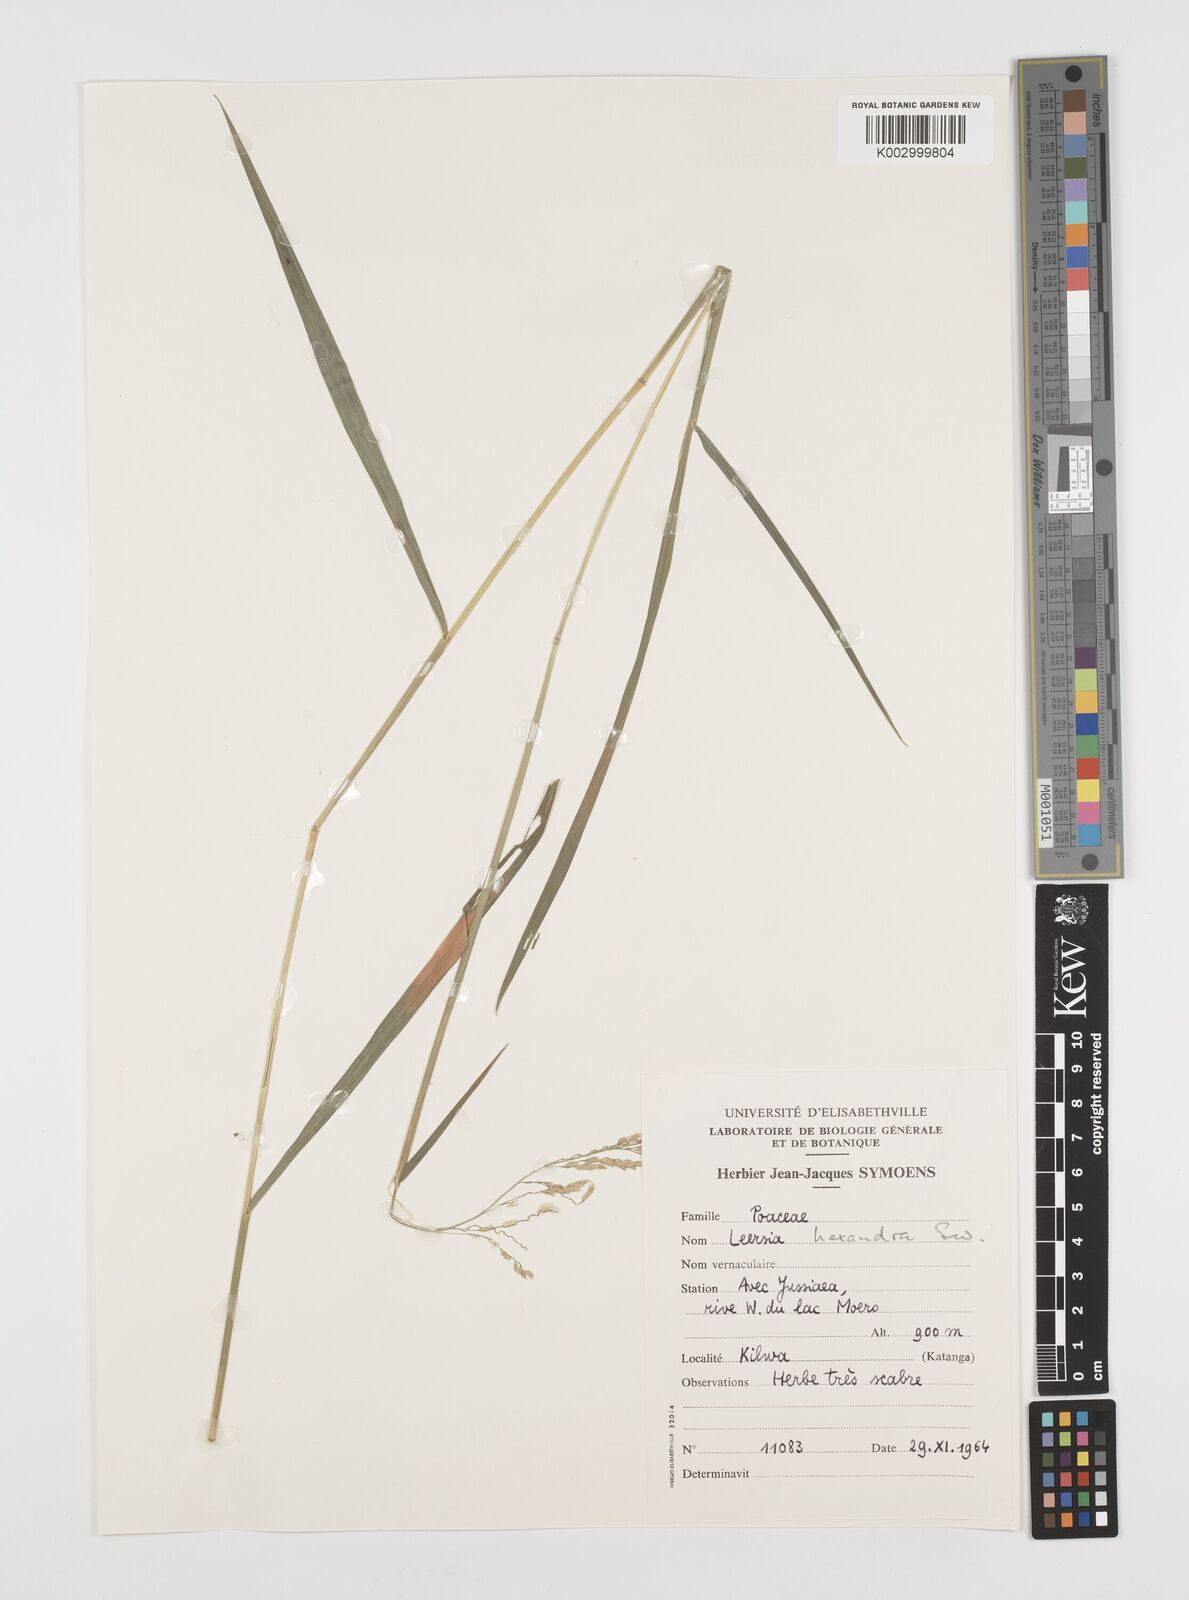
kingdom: Plantae
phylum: Tracheophyta
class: Liliopsida
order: Poales
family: Poaceae
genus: Leersia
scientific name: Leersia hexandra
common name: Southern cut grass
